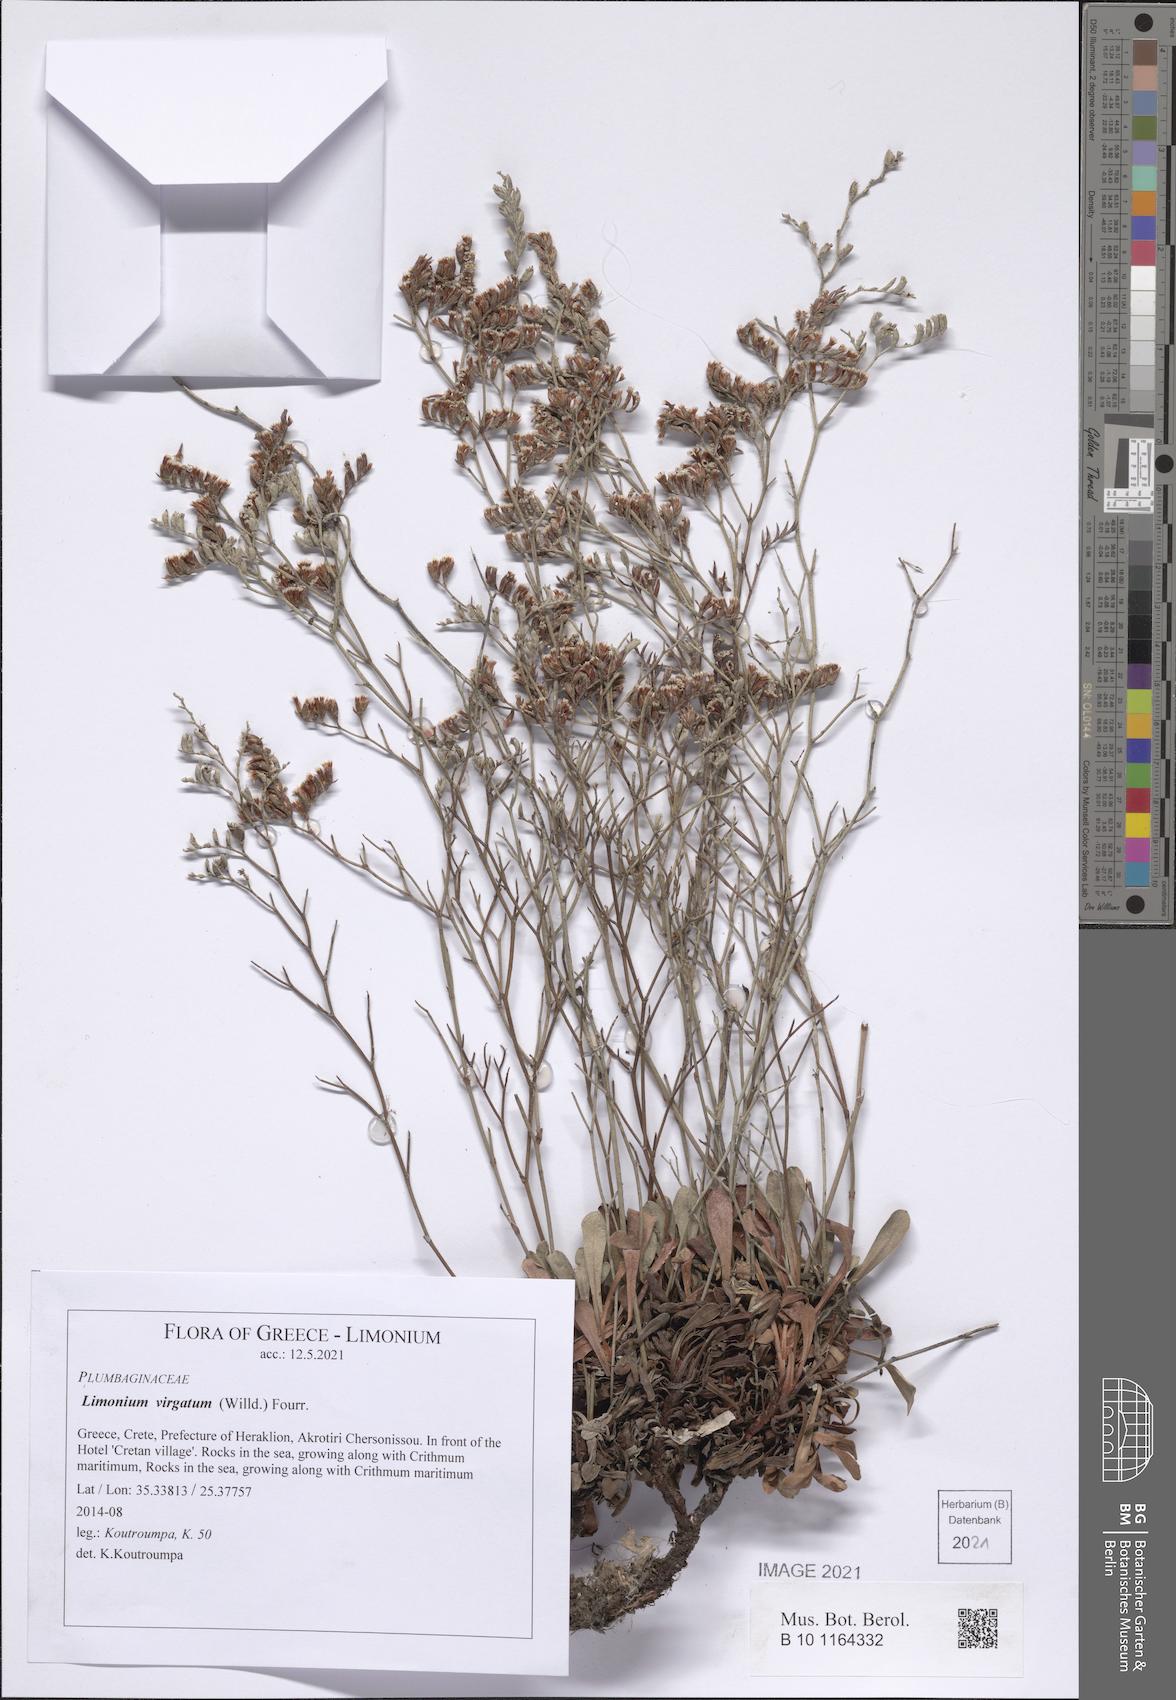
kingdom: Plantae
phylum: Tracheophyta
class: Magnoliopsida
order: Caryophyllales
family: Plumbaginaceae
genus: Limonium
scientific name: Limonium virgatum
